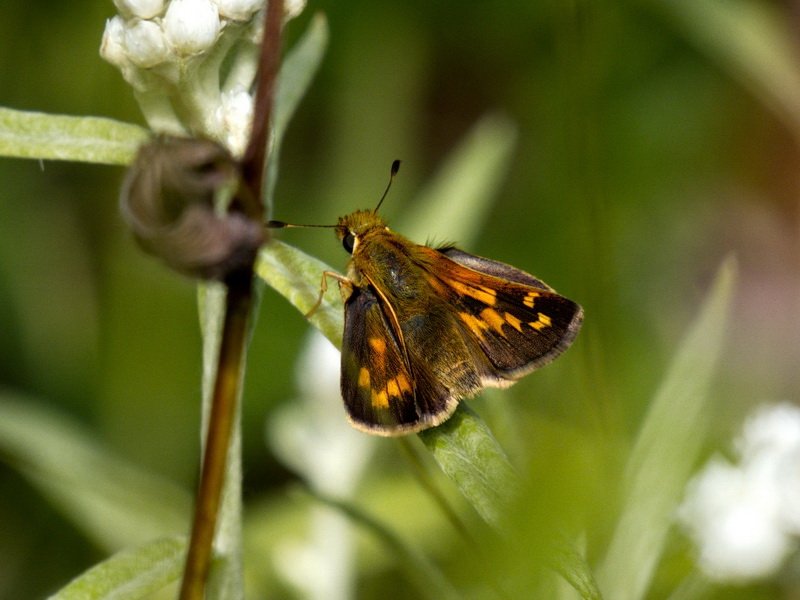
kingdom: Animalia
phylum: Arthropoda
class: Insecta
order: Lepidoptera
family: Hesperiidae
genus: Hesperia
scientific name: Hesperia comma
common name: Common Branded Skipper
